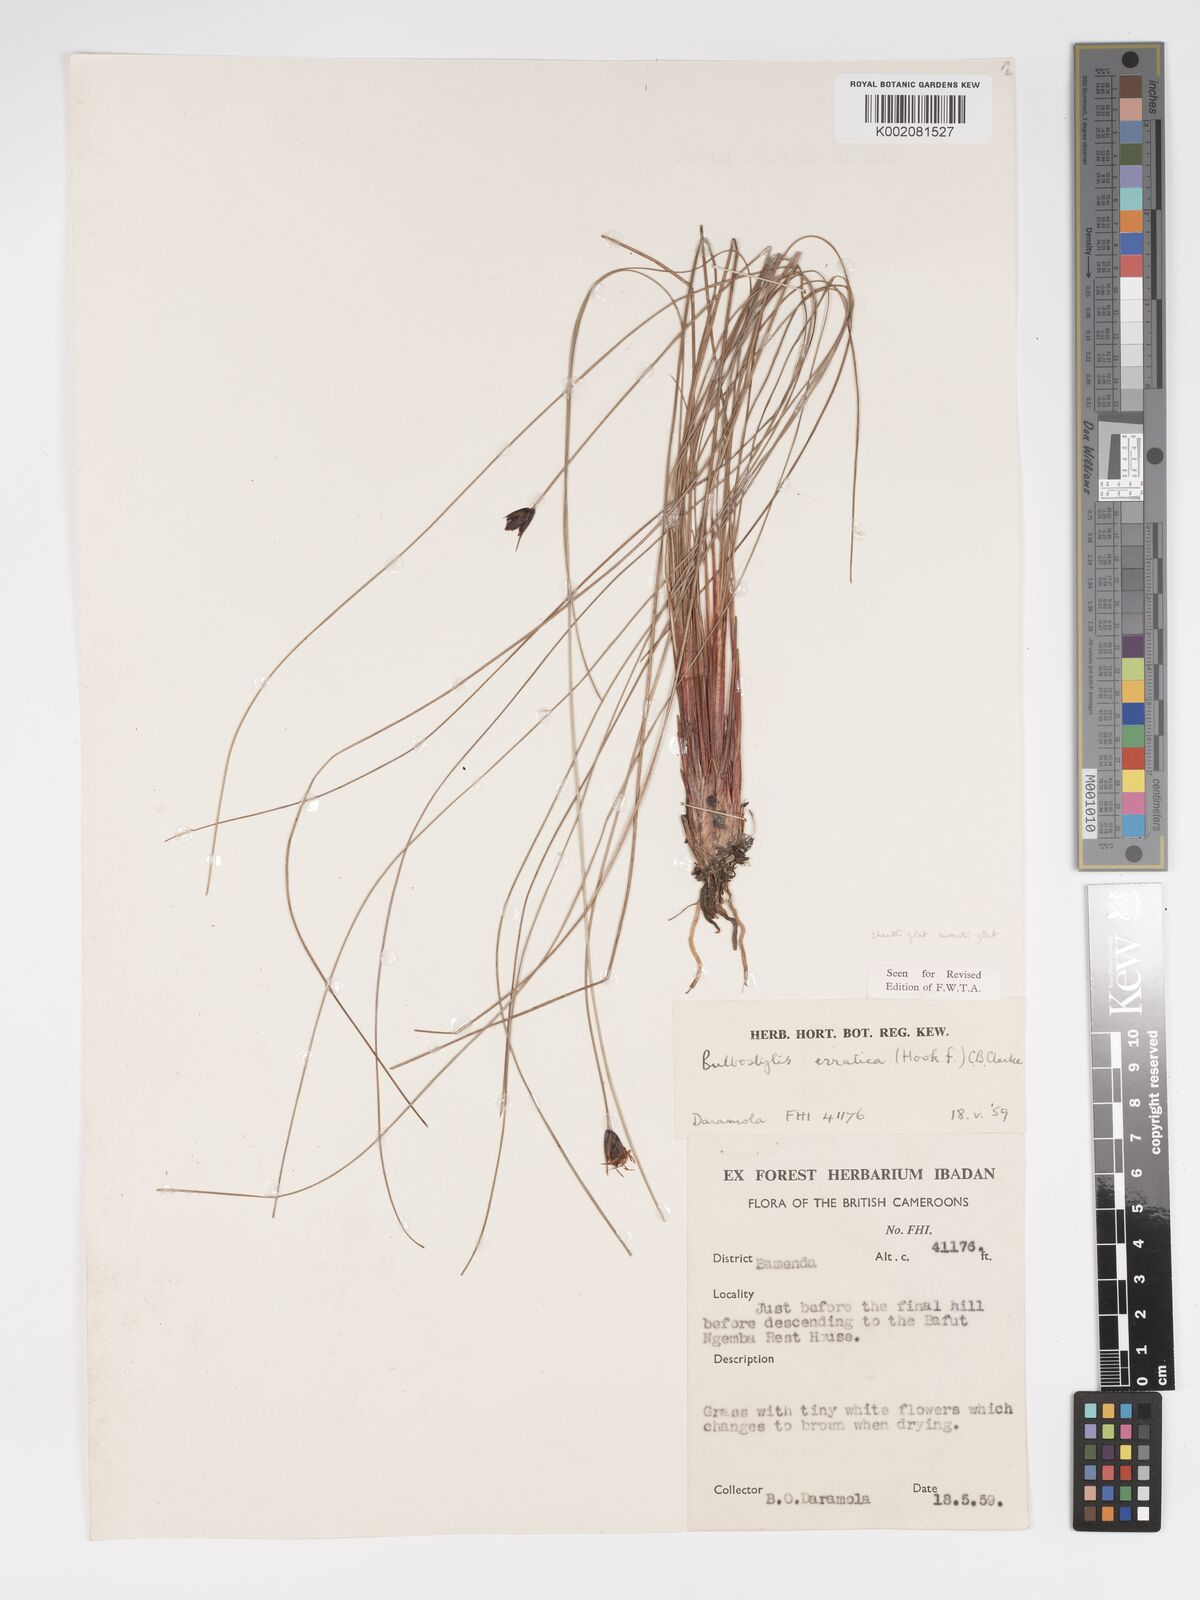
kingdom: Plantae
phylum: Tracheophyta
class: Liliopsida
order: Poales
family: Cyperaceae
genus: Bulbostylis
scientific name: Bulbostylis schoenoides
